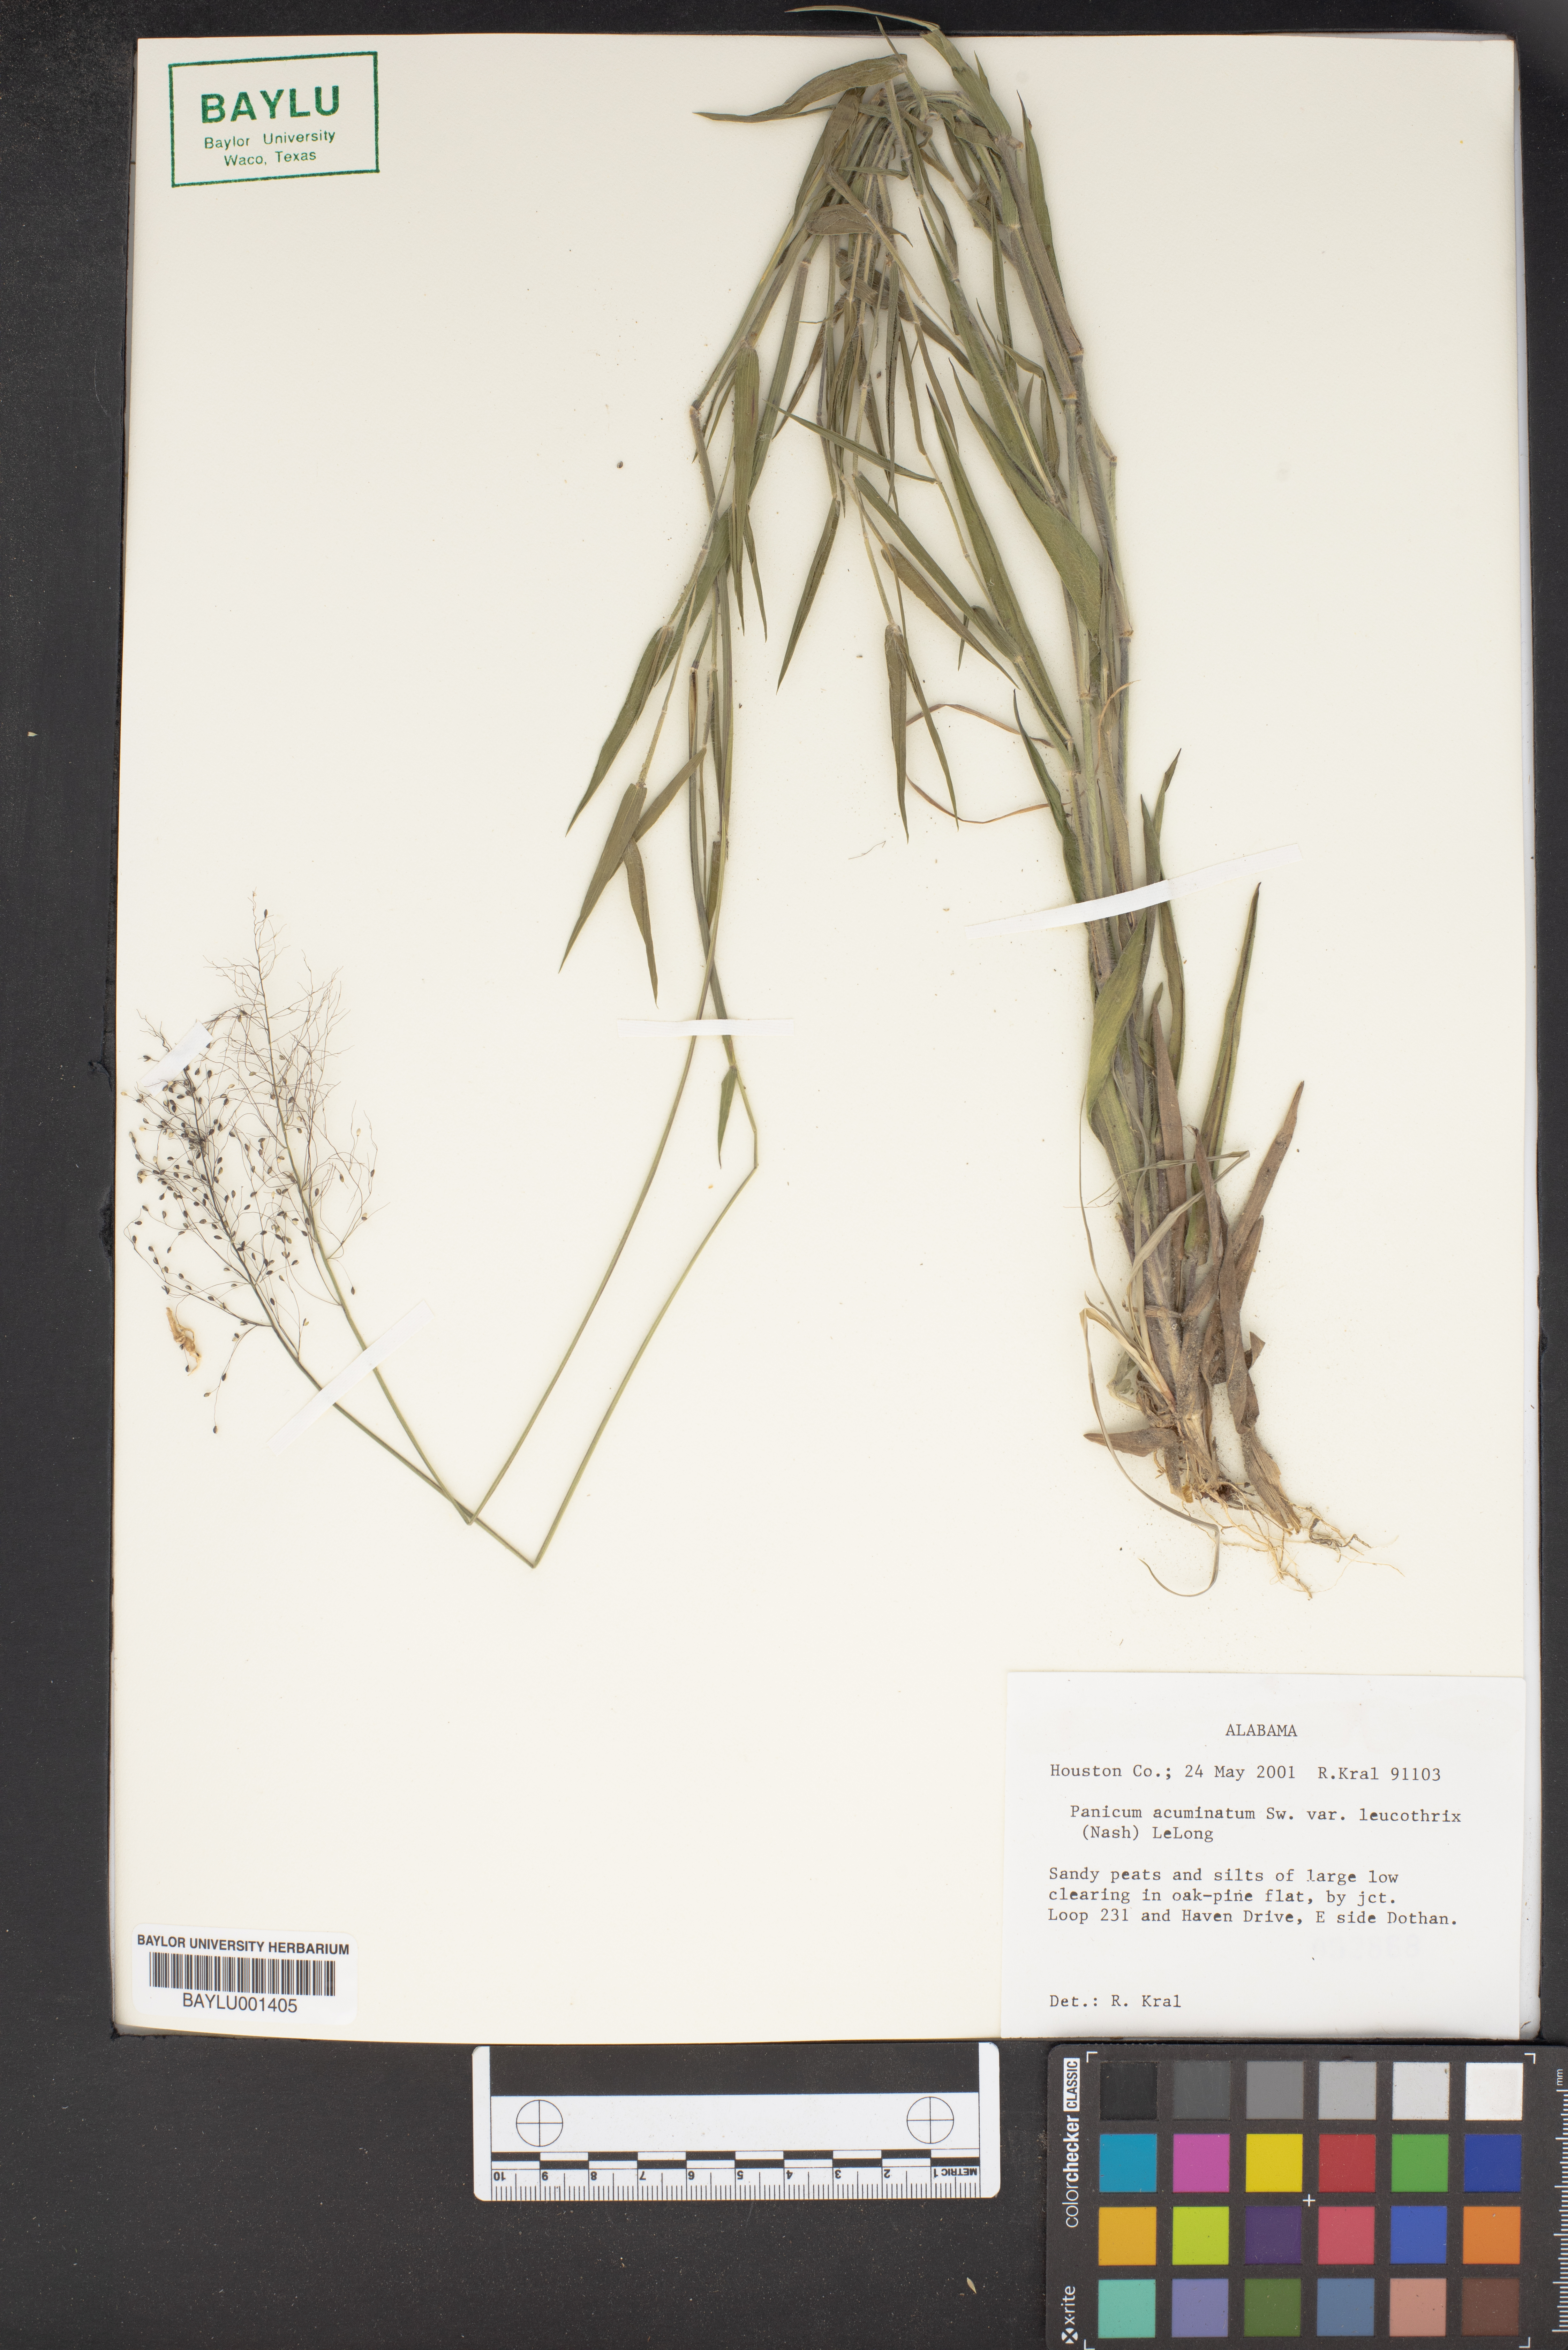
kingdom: Plantae
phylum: Tracheophyta
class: Liliopsida
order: Poales
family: Poaceae
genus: Dichanthelium
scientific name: Dichanthelium leucothrix
